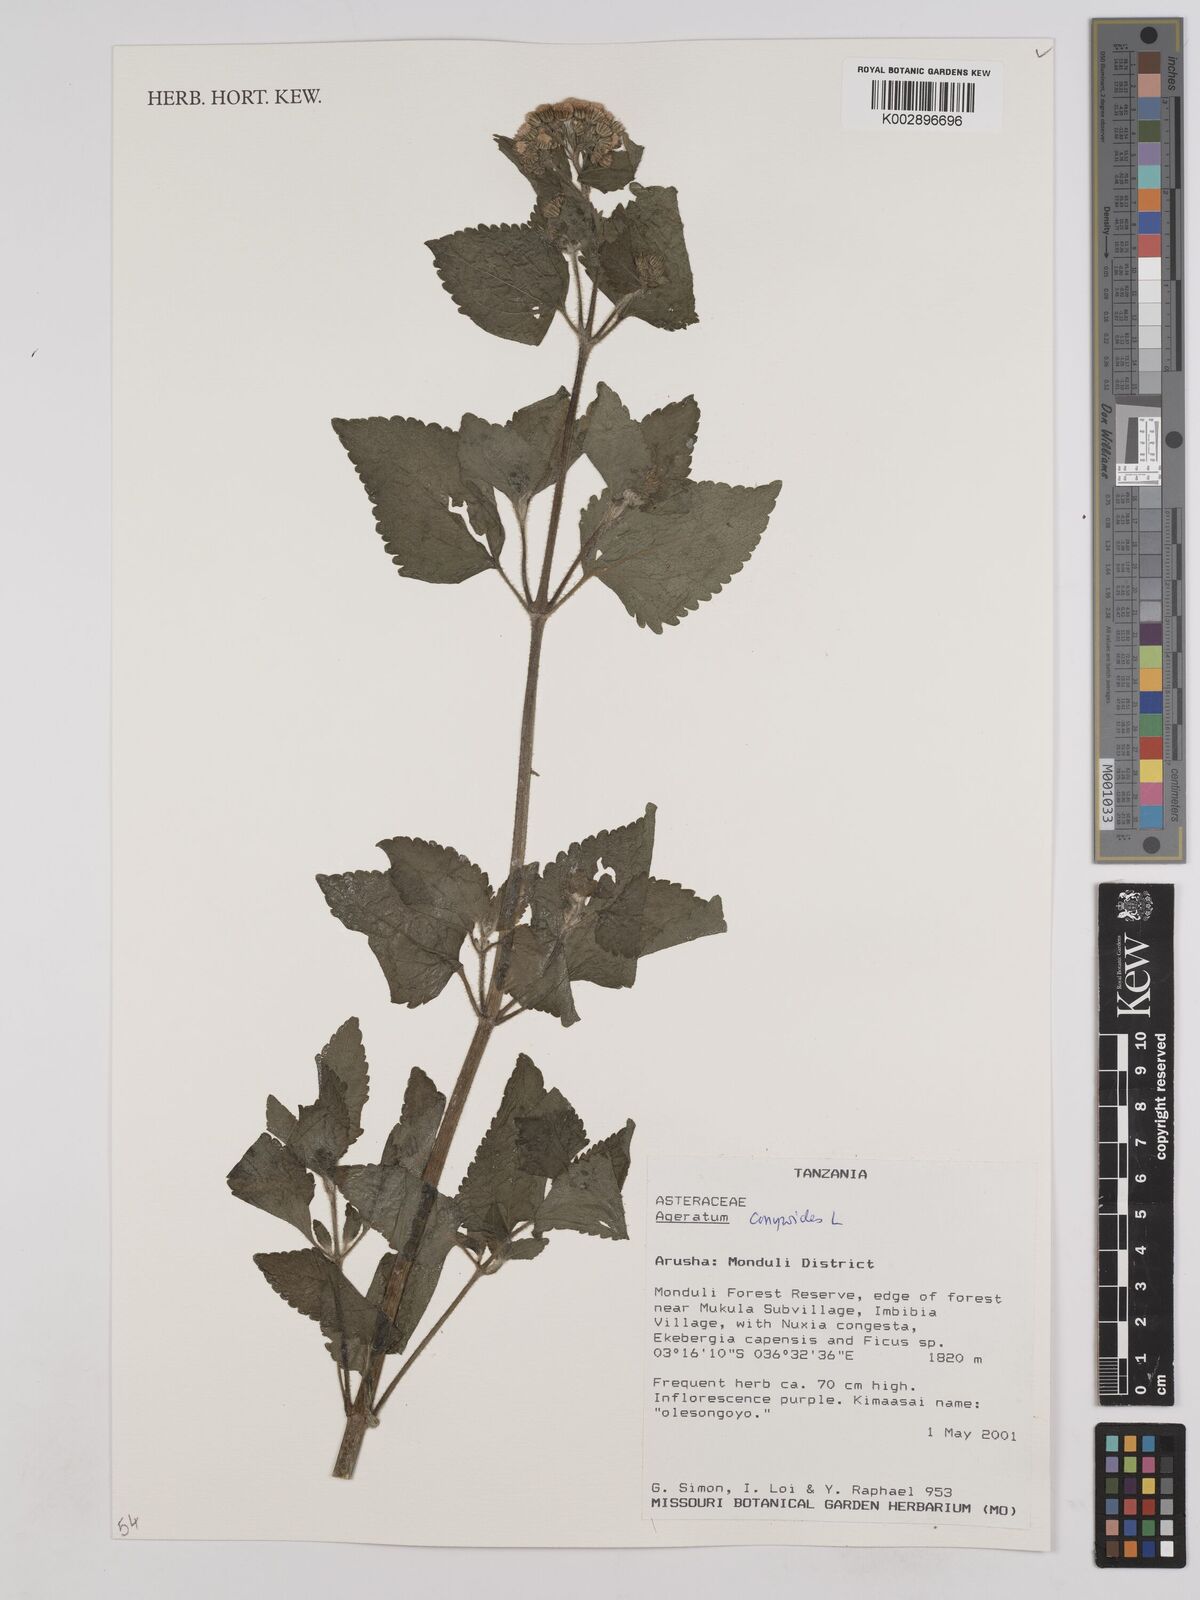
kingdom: Plantae
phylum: Tracheophyta
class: Magnoliopsida
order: Asterales
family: Asteraceae
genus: Ageratum
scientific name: Ageratum conyzoides
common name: Tropical whiteweed
